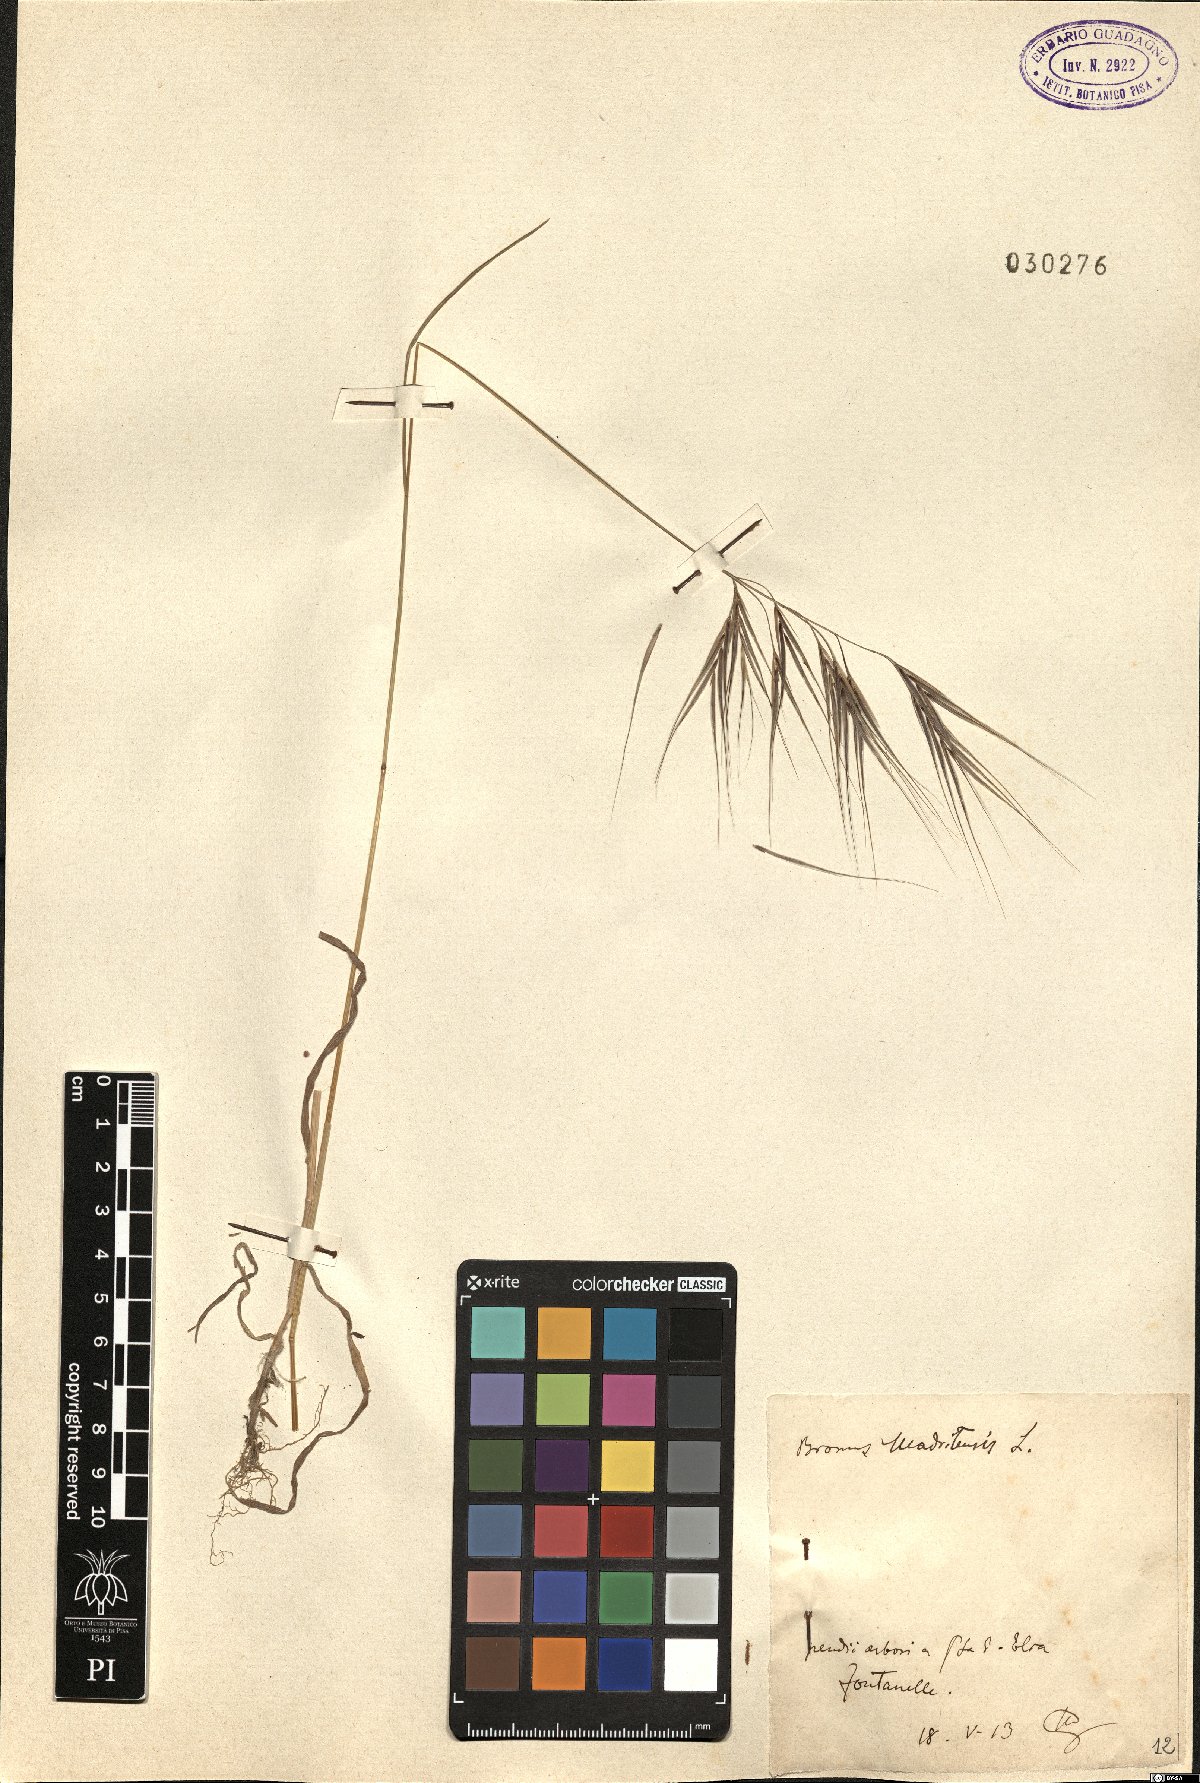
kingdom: Plantae
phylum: Tracheophyta
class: Liliopsida
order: Poales
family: Poaceae
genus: Bromus
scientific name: Bromus madritensis
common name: Compact brome
